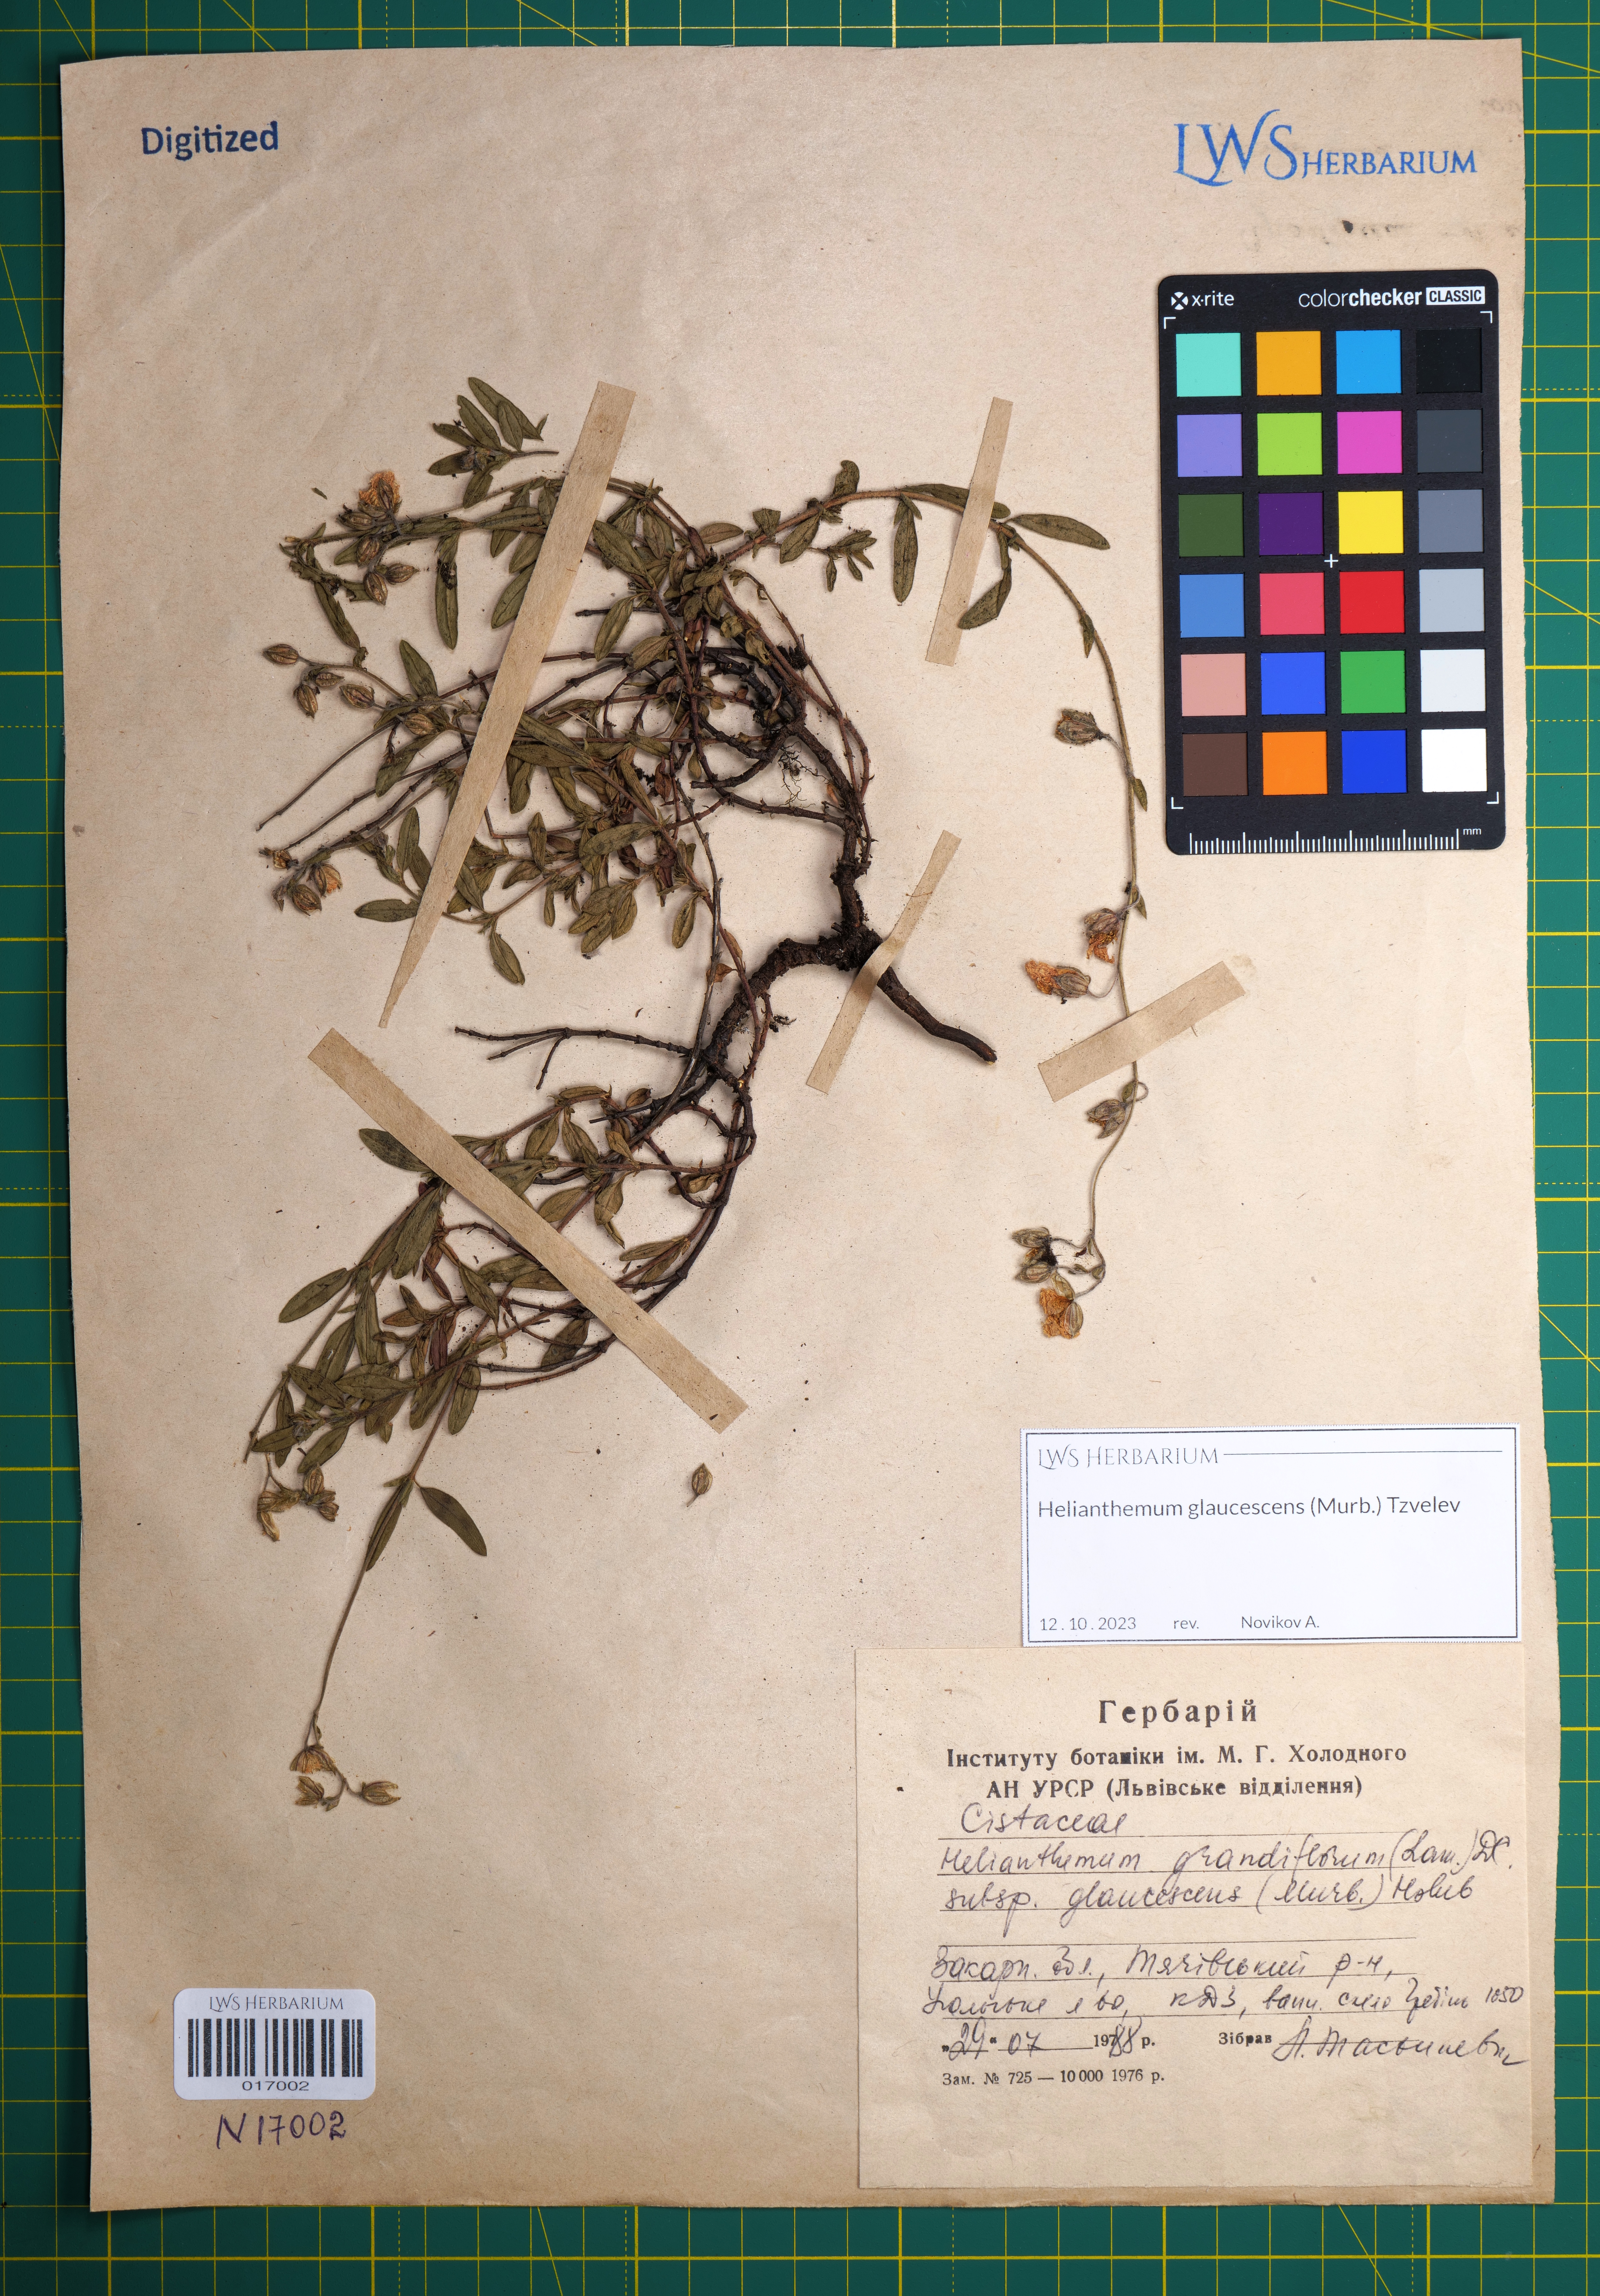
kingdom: Plantae
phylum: Tracheophyta
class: Magnoliopsida
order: Malvales
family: Cistaceae
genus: Helianthemum
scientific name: Helianthemum nummularium
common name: Common rock-rose
